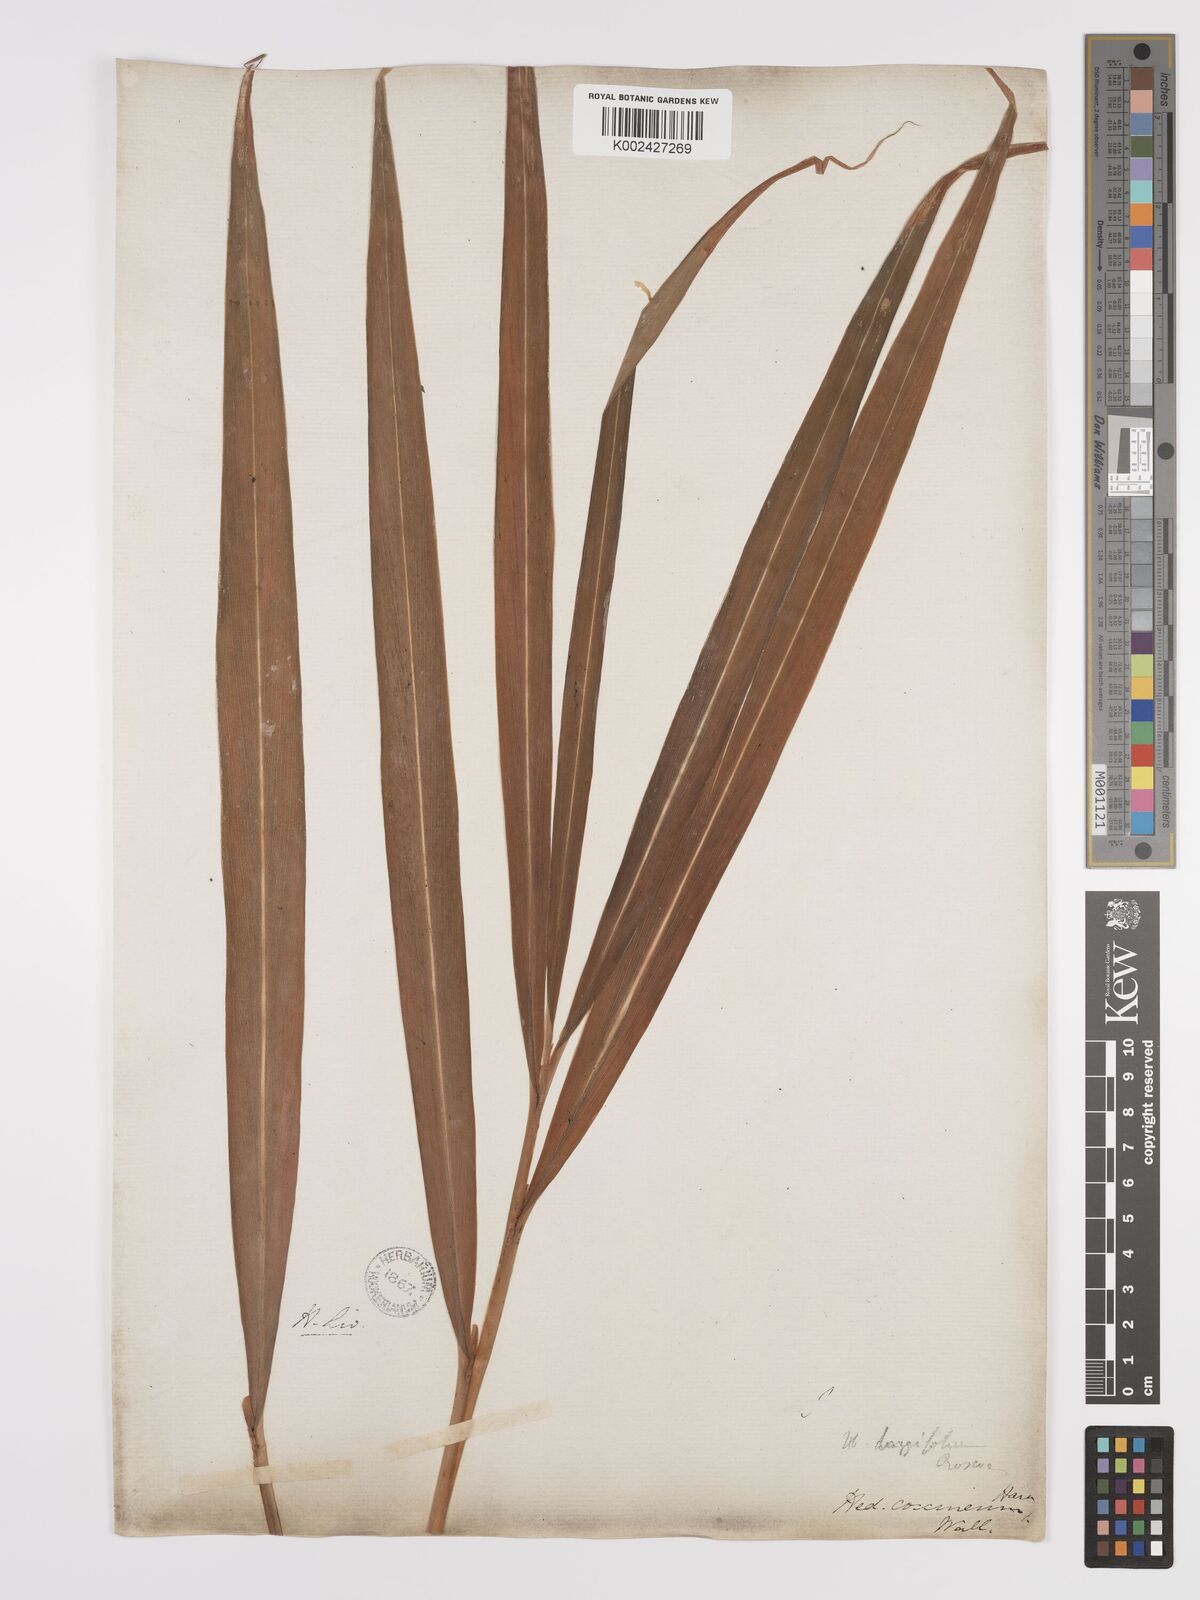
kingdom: Plantae
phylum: Tracheophyta
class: Liliopsida
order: Zingiberales
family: Zingiberaceae
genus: Hedychium
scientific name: Hedychium coccineum
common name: Red ginger-lily
